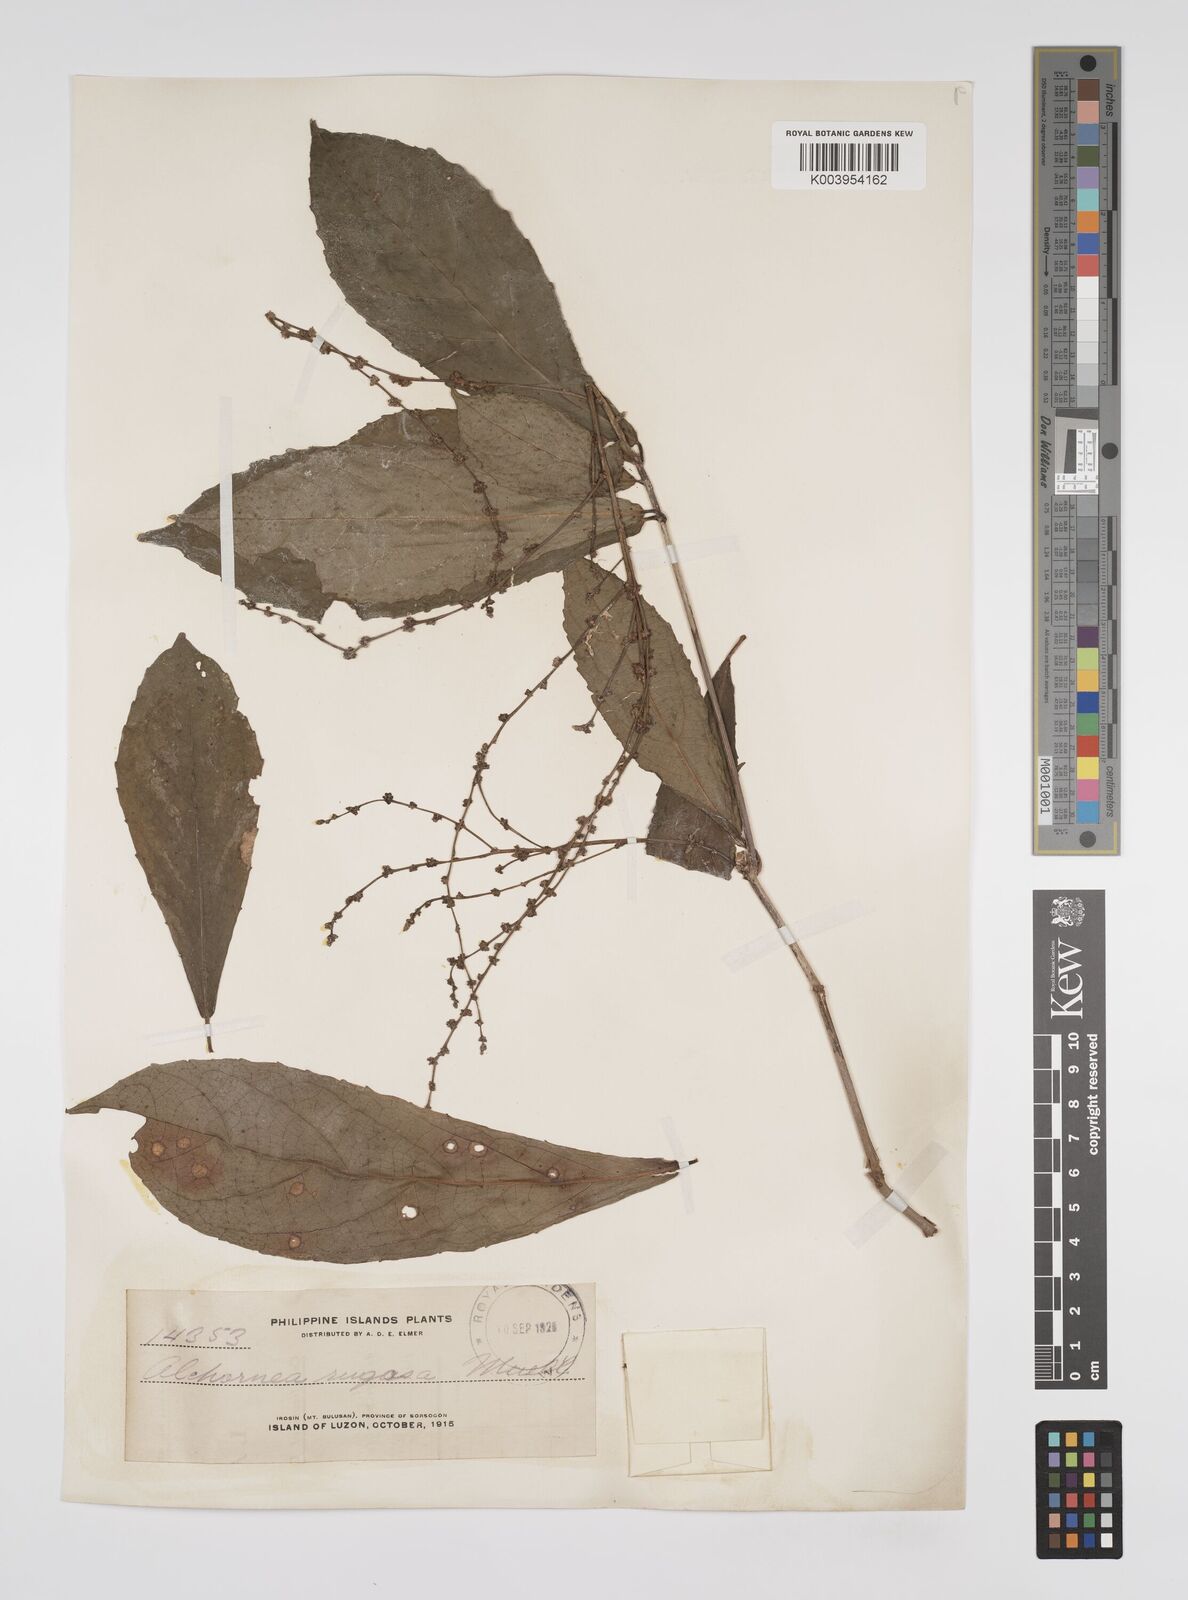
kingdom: Plantae
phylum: Tracheophyta
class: Magnoliopsida
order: Malpighiales
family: Euphorbiaceae
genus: Alchornea
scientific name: Alchornea rugosa
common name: Alchorntree
